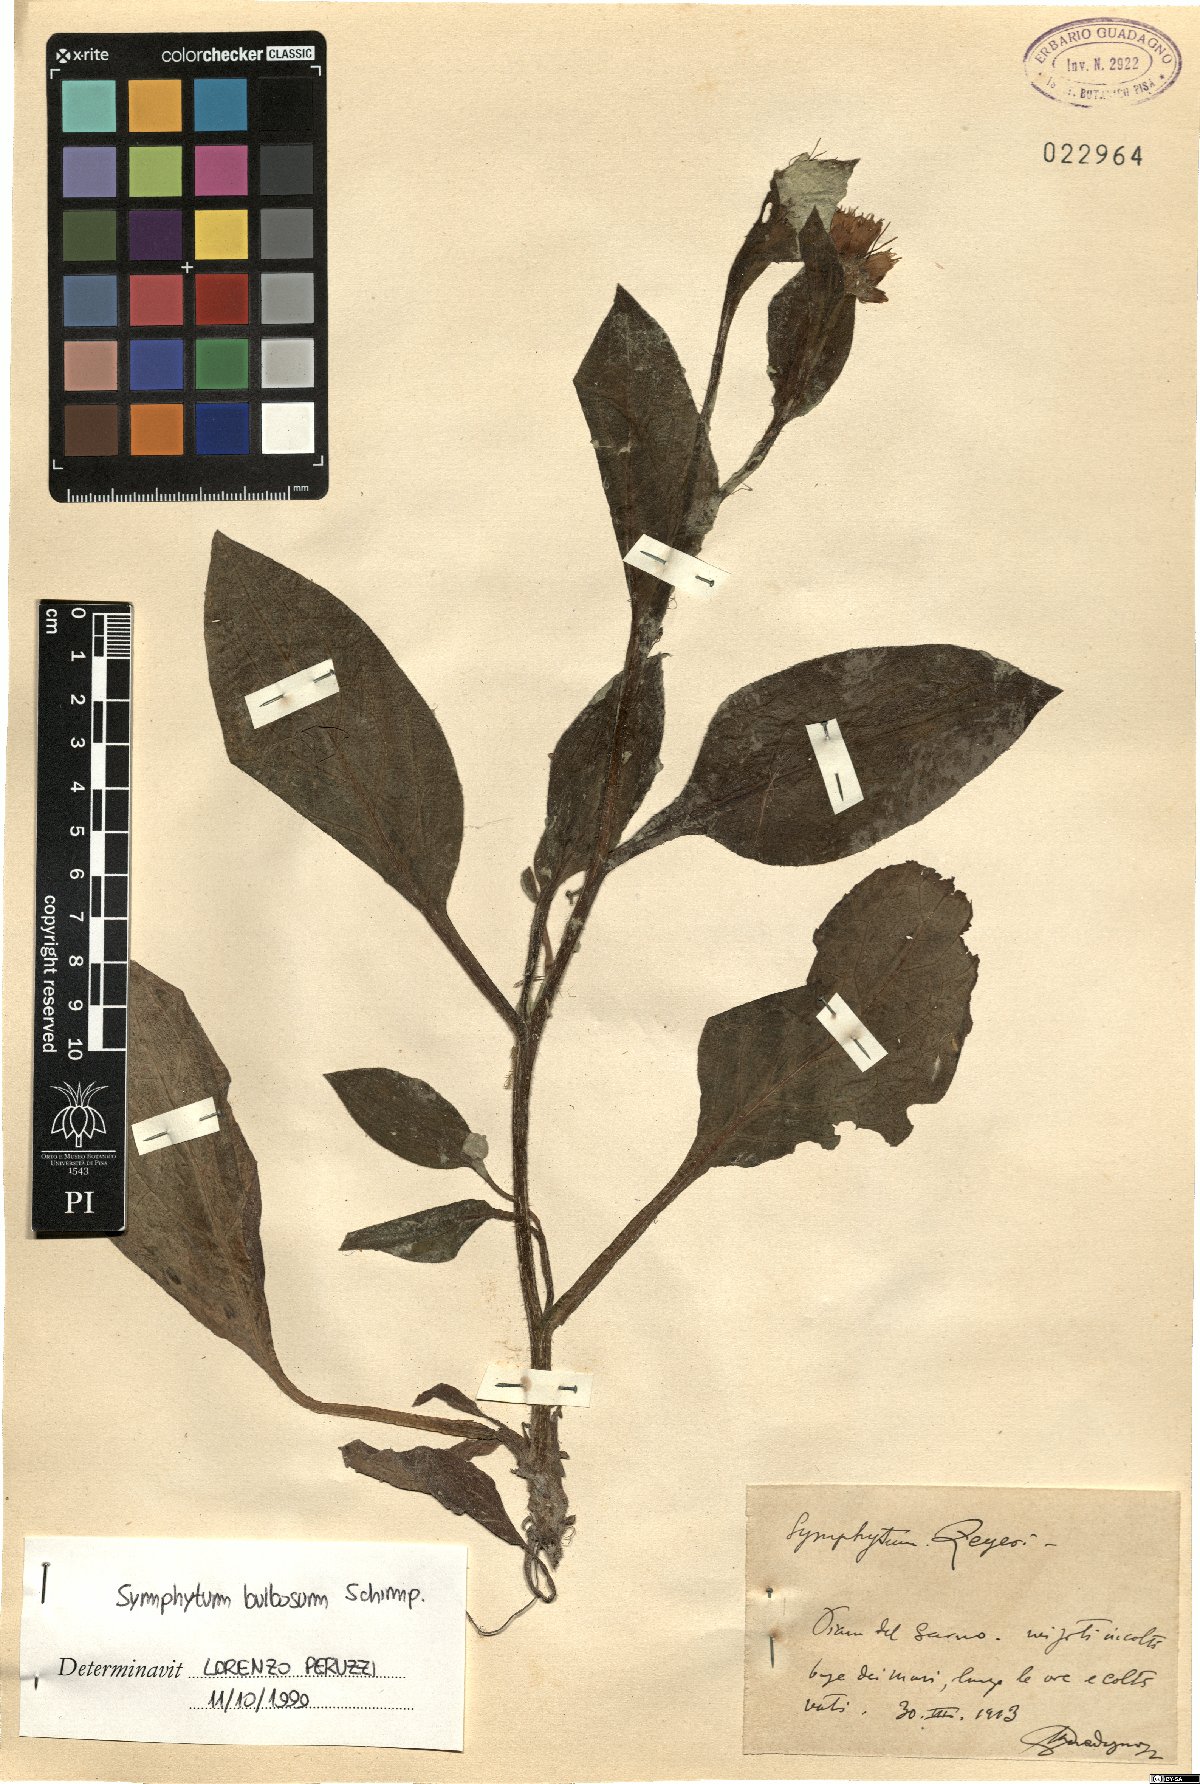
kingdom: Plantae
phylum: Tracheophyta
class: Magnoliopsida
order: Boraginales
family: Boraginaceae
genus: Symphytum
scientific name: Symphytum bulbosum
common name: Bulbous comfrey
